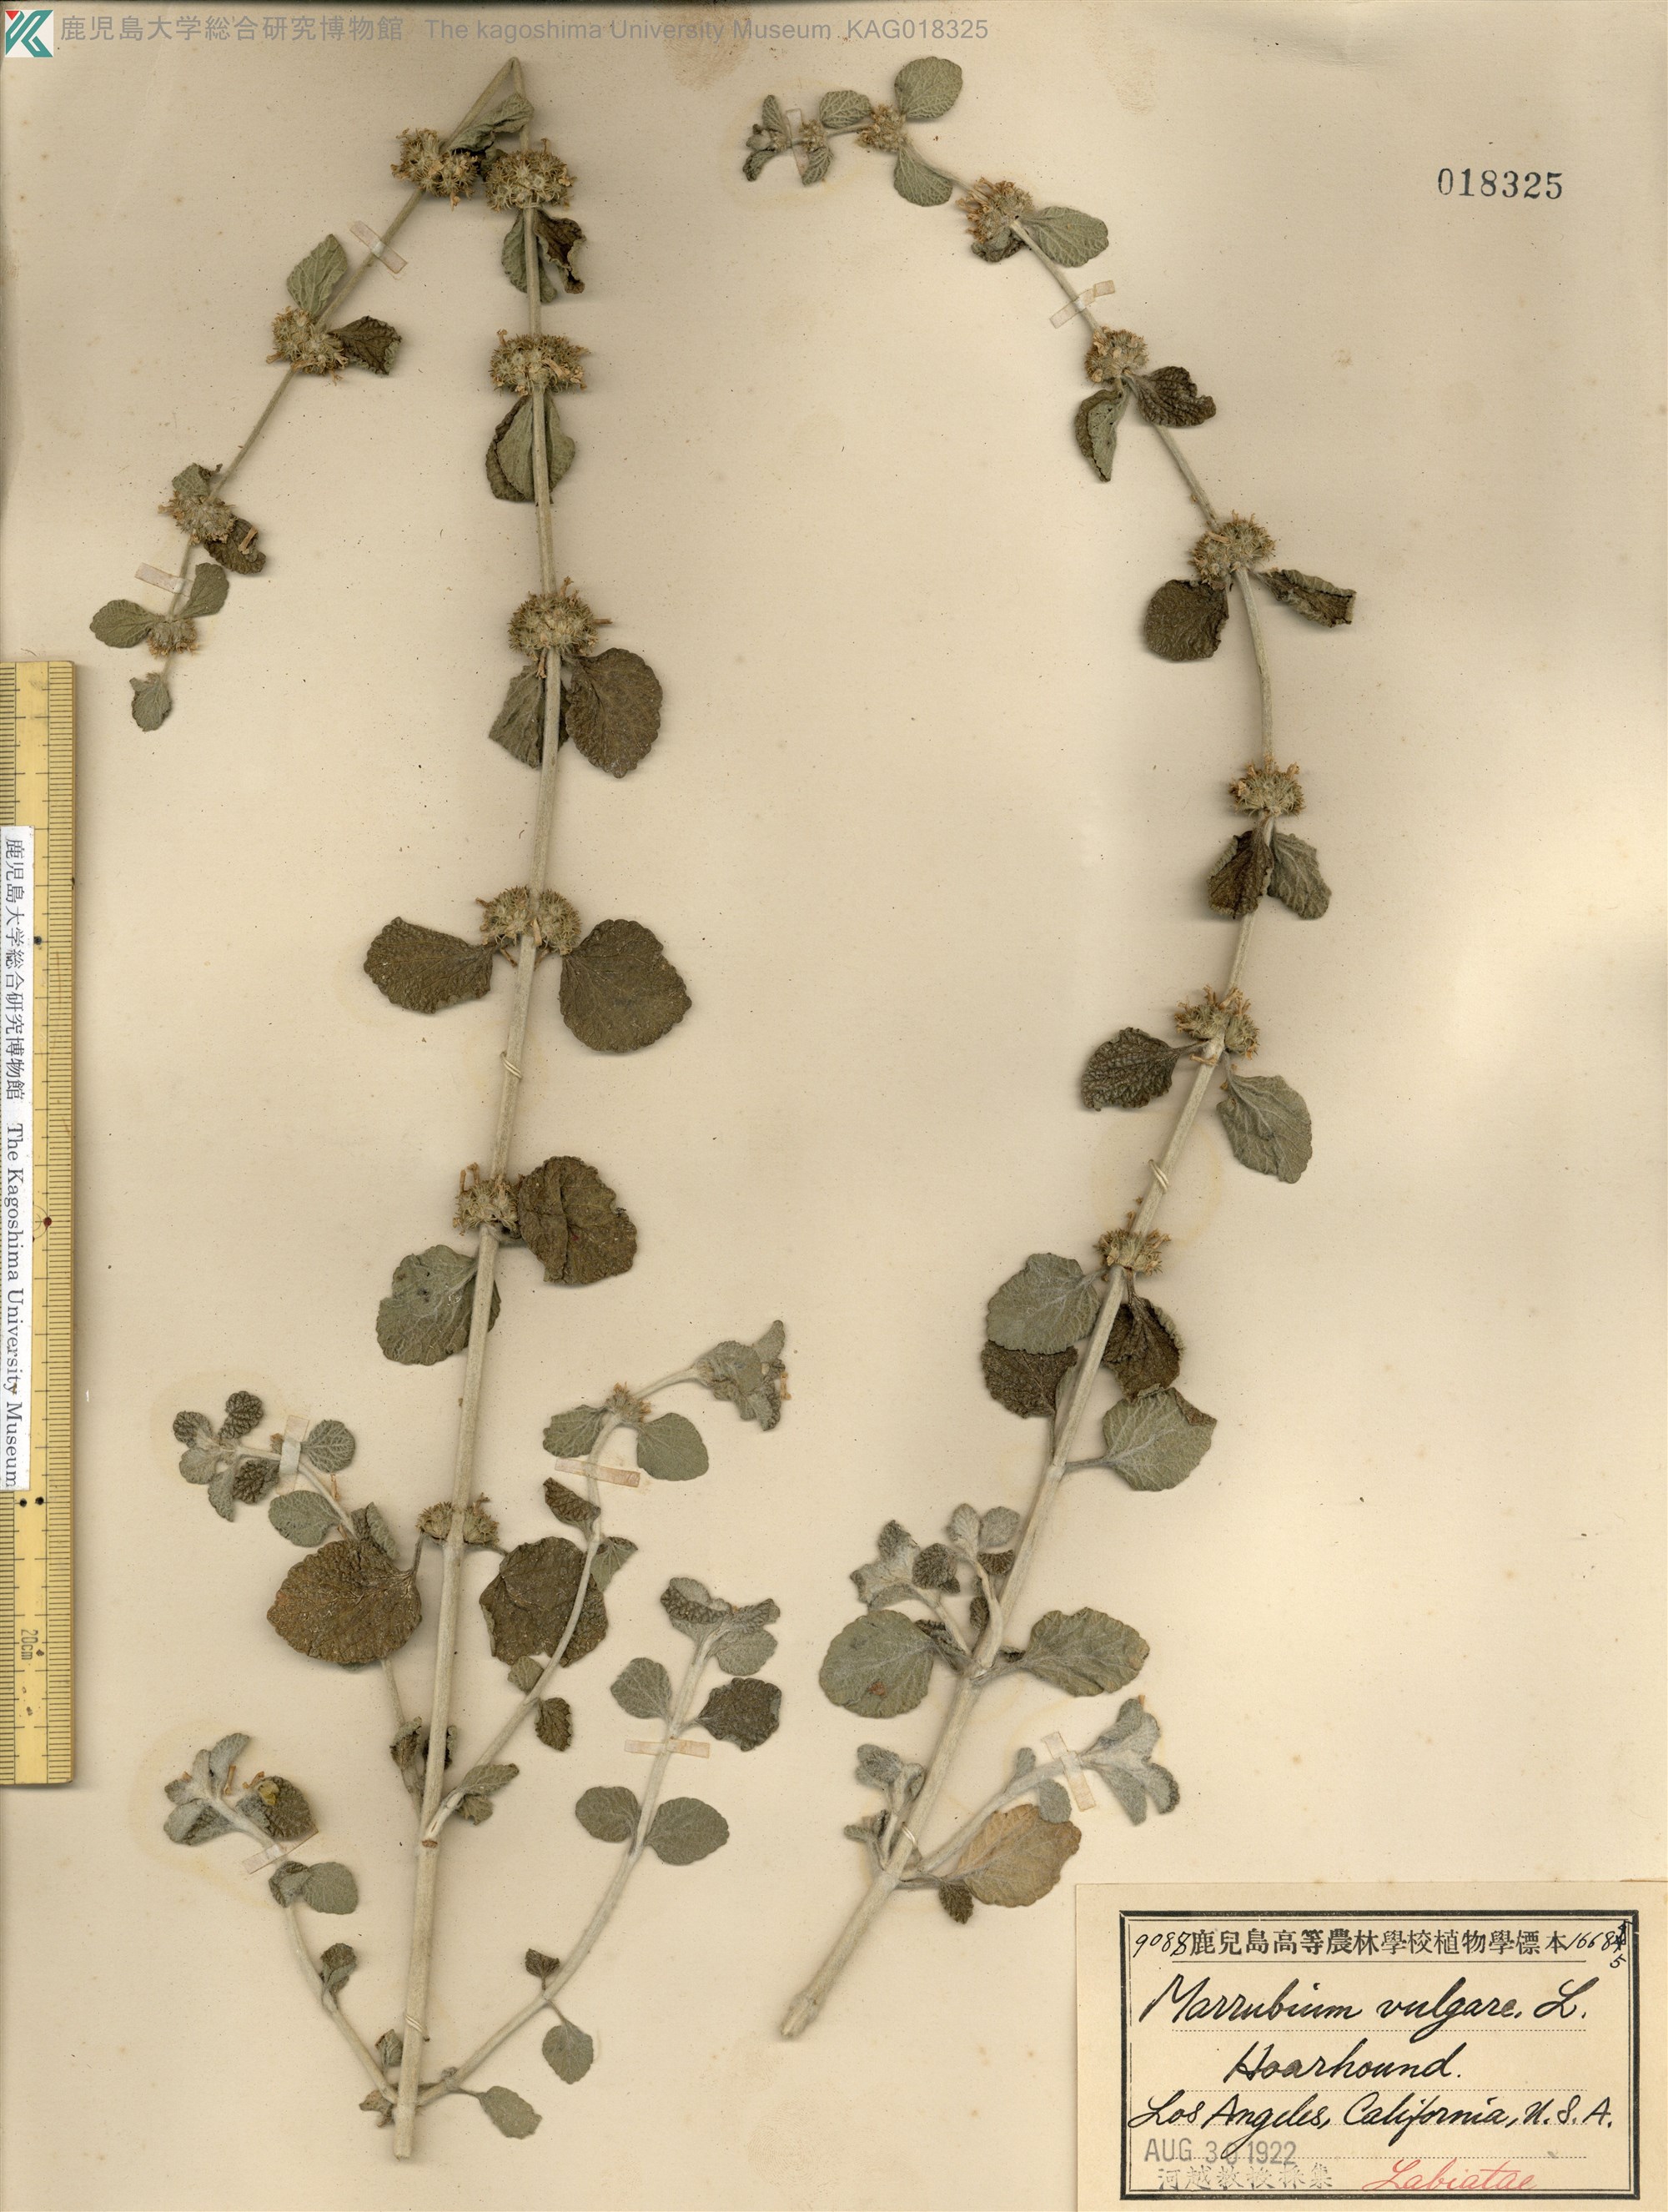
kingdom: Plantae
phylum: Tracheophyta
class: Magnoliopsida
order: Lamiales
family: Lamiaceae
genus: Marrubium
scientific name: Marrubium vulgare
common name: Horehound
